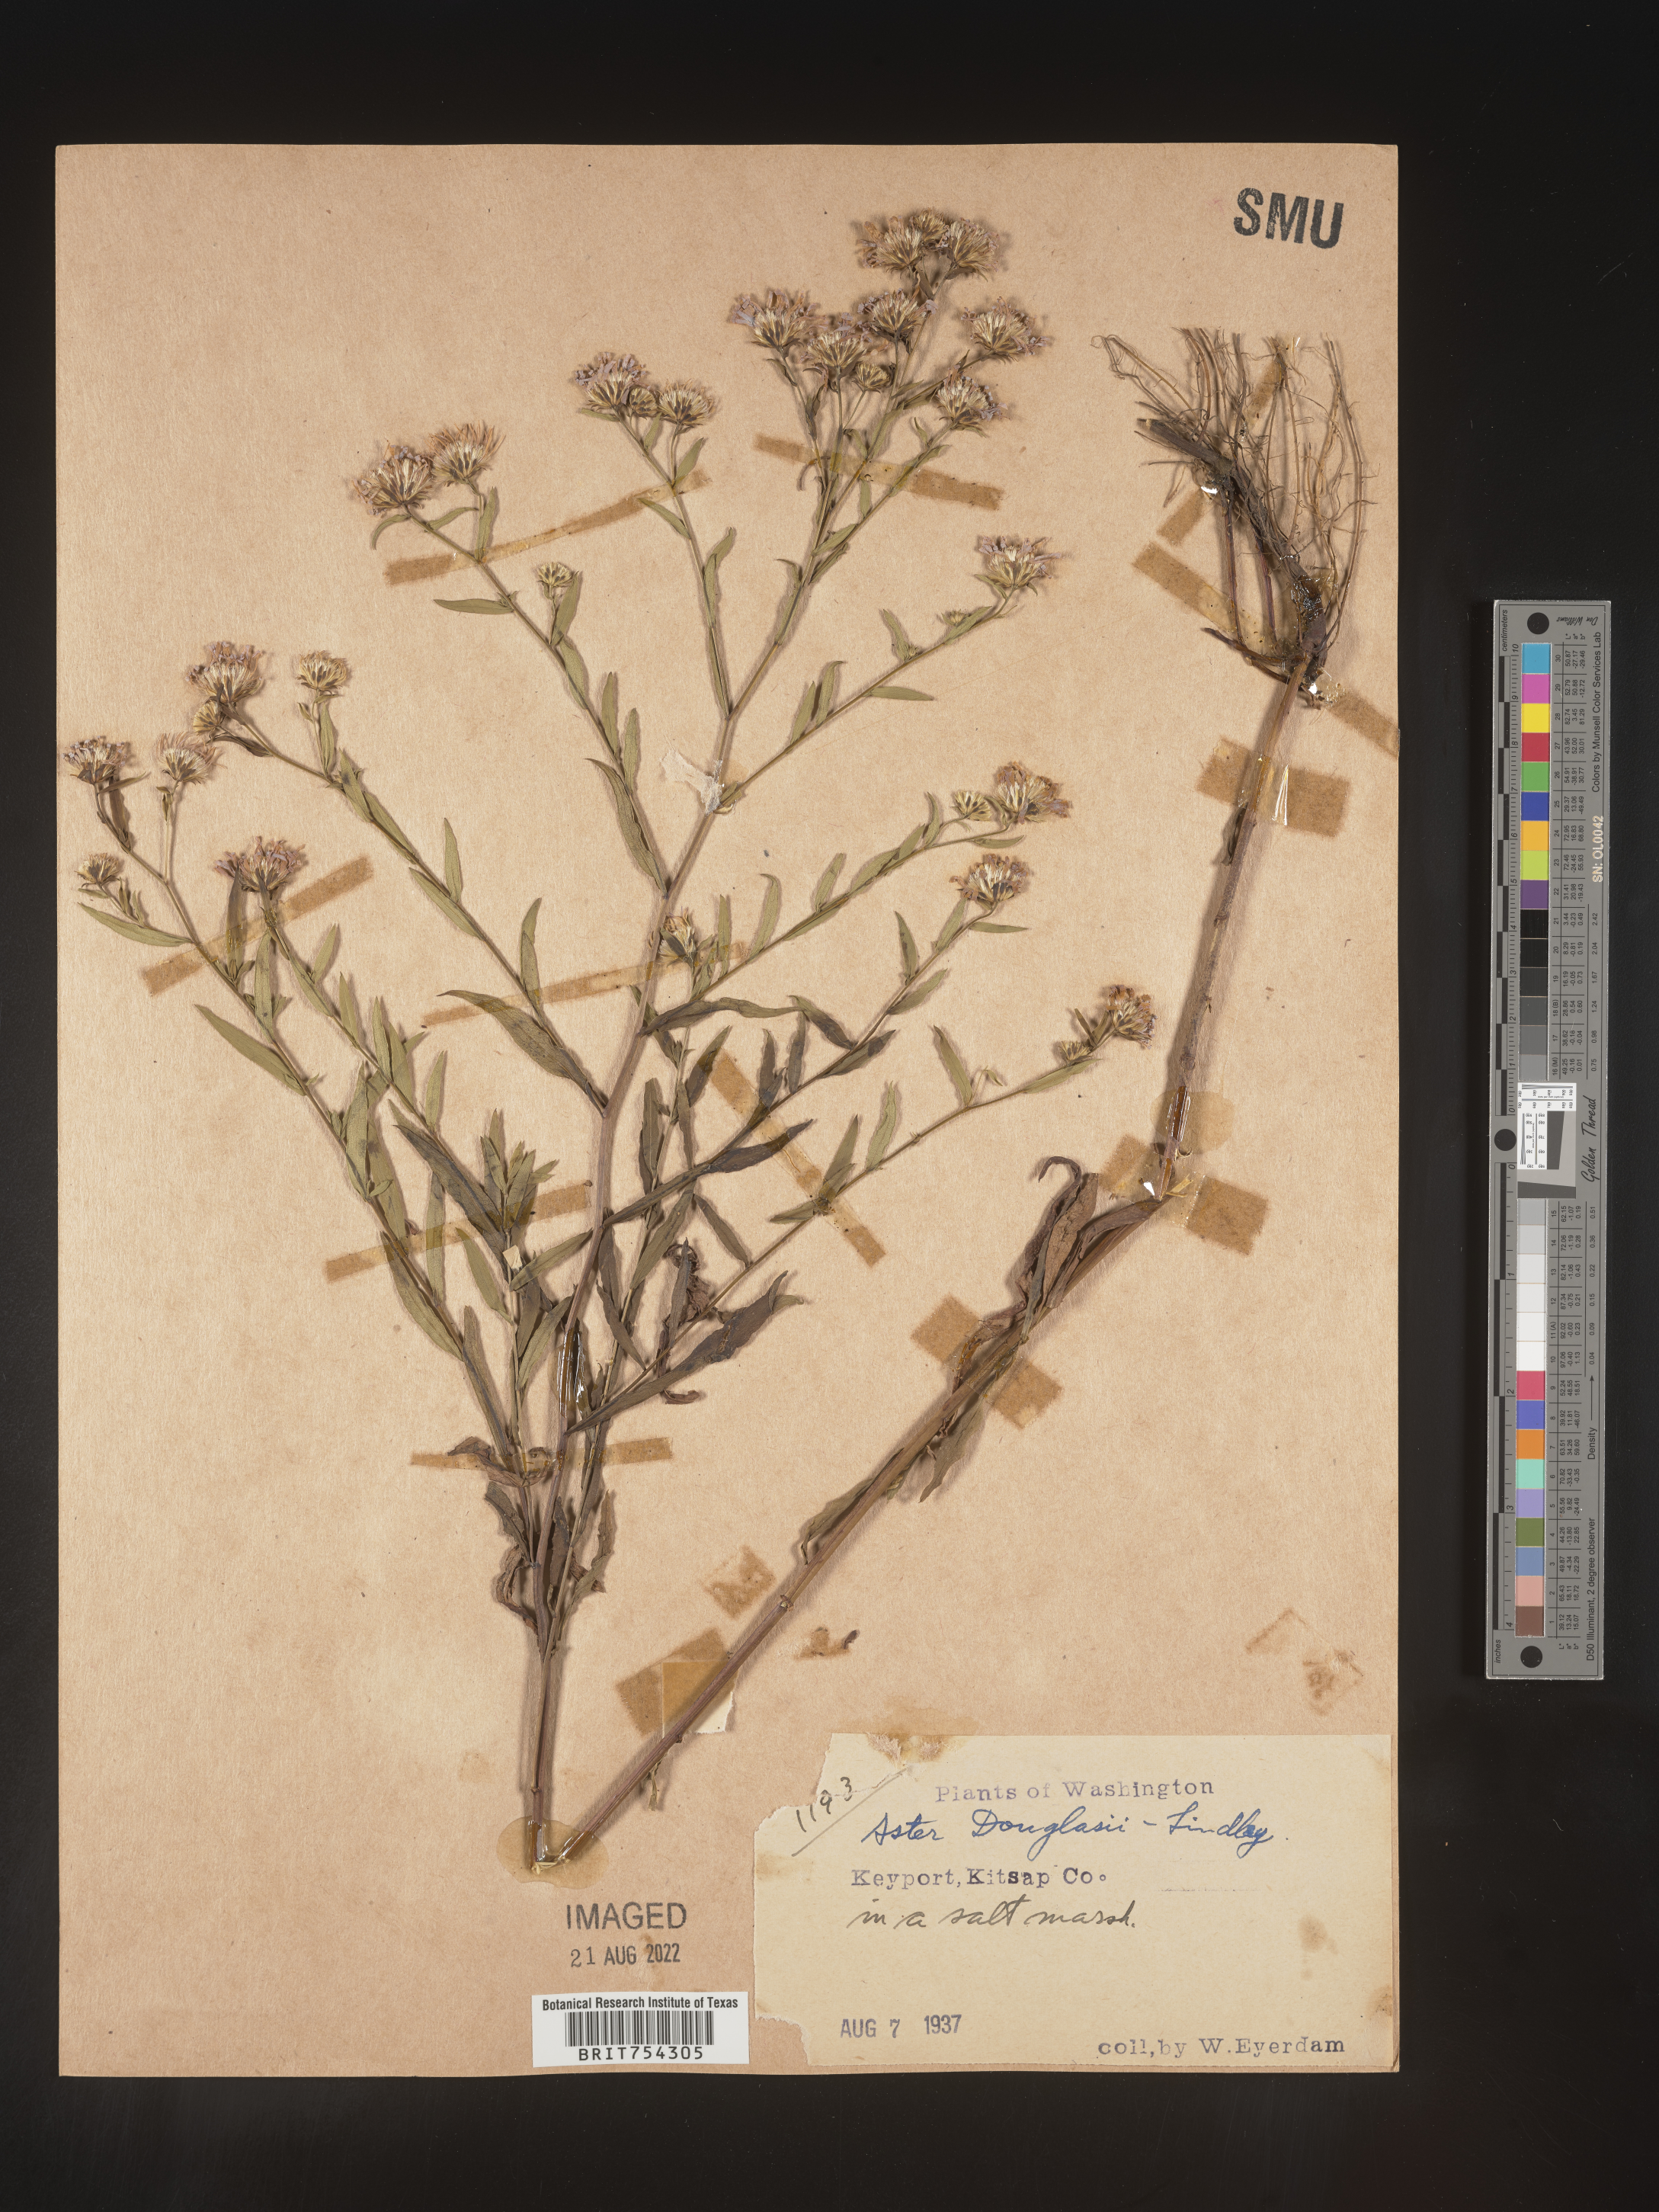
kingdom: Plantae
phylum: Tracheophyta
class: Magnoliopsida
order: Asterales
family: Asteraceae
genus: Symphyotrichum
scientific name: Symphyotrichum subspicatum
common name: Douglas' aster
